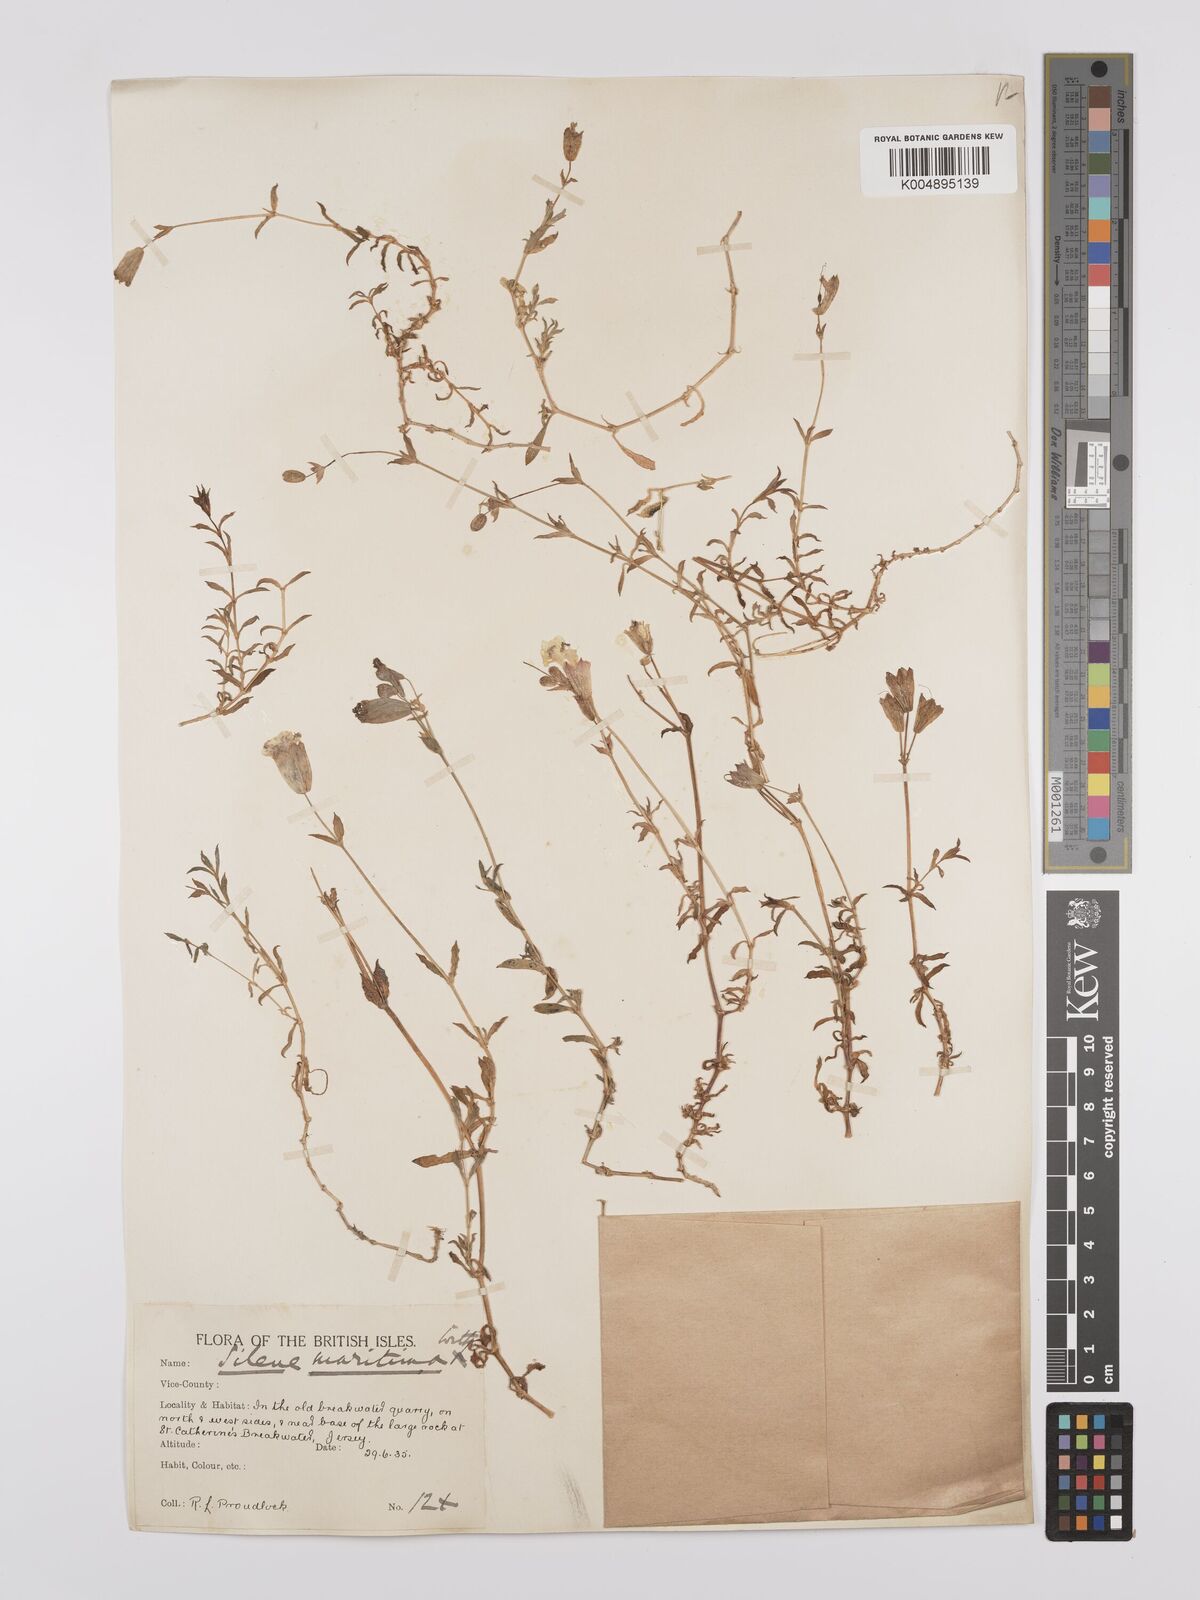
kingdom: Plantae
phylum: Tracheophyta
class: Magnoliopsida
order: Caryophyllales
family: Caryophyllaceae
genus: Silene
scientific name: Silene uniflora
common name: Sea campion
